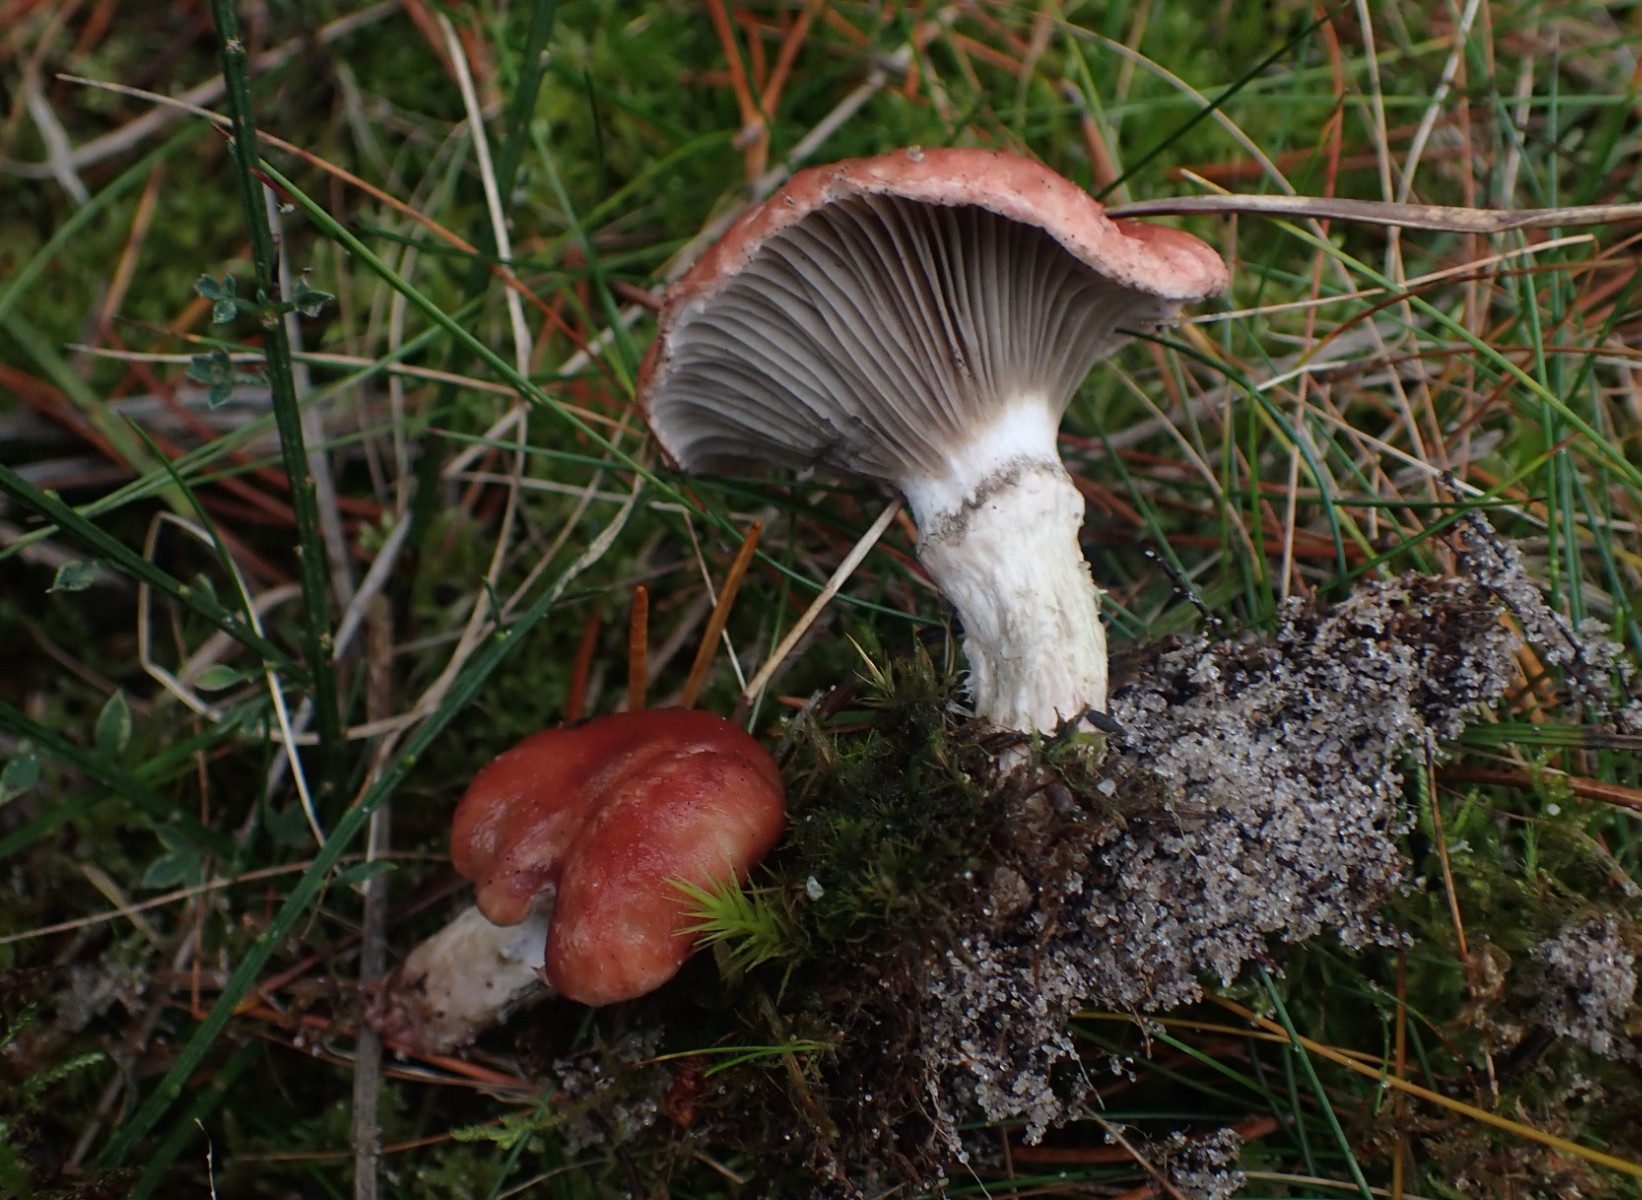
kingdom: Fungi
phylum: Basidiomycota
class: Agaricomycetes
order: Boletales
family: Gomphidiaceae
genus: Gomphidius
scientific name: Gomphidius roseus
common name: rosenrød slimslør
